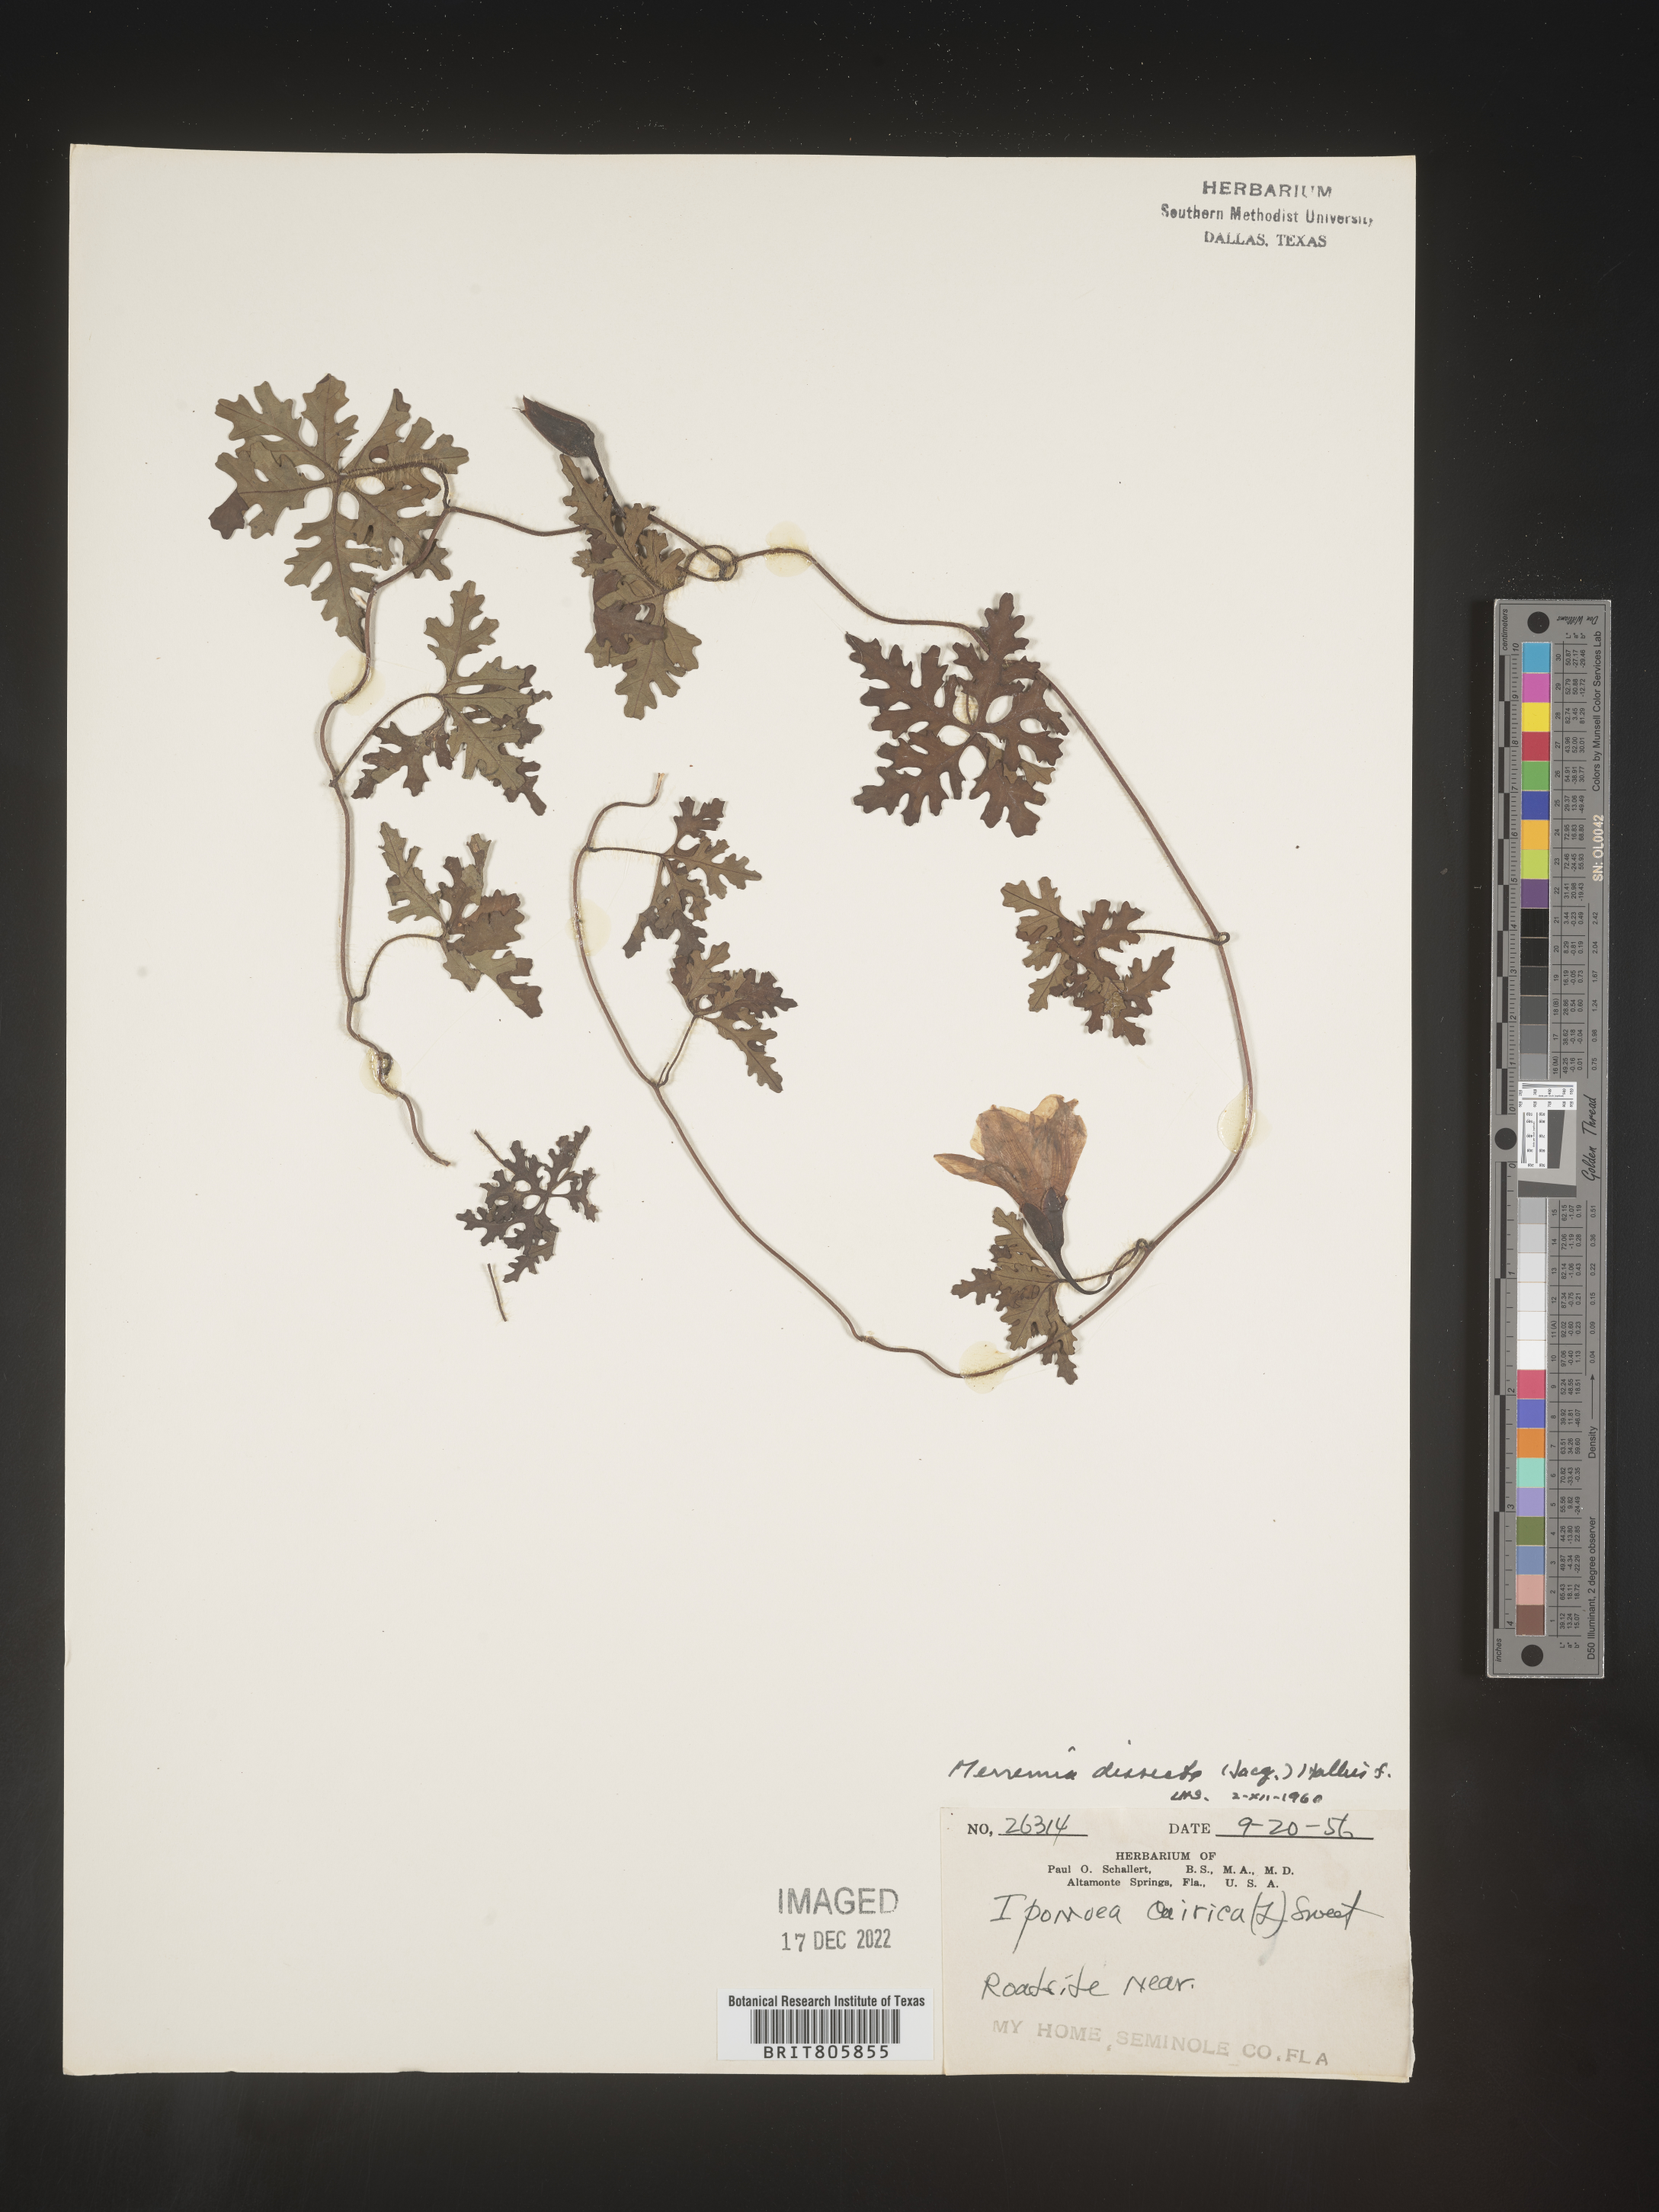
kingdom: Plantae
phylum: Tracheophyta
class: Magnoliopsida
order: Solanales
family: Convolvulaceae
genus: Merremia
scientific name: Merremia
